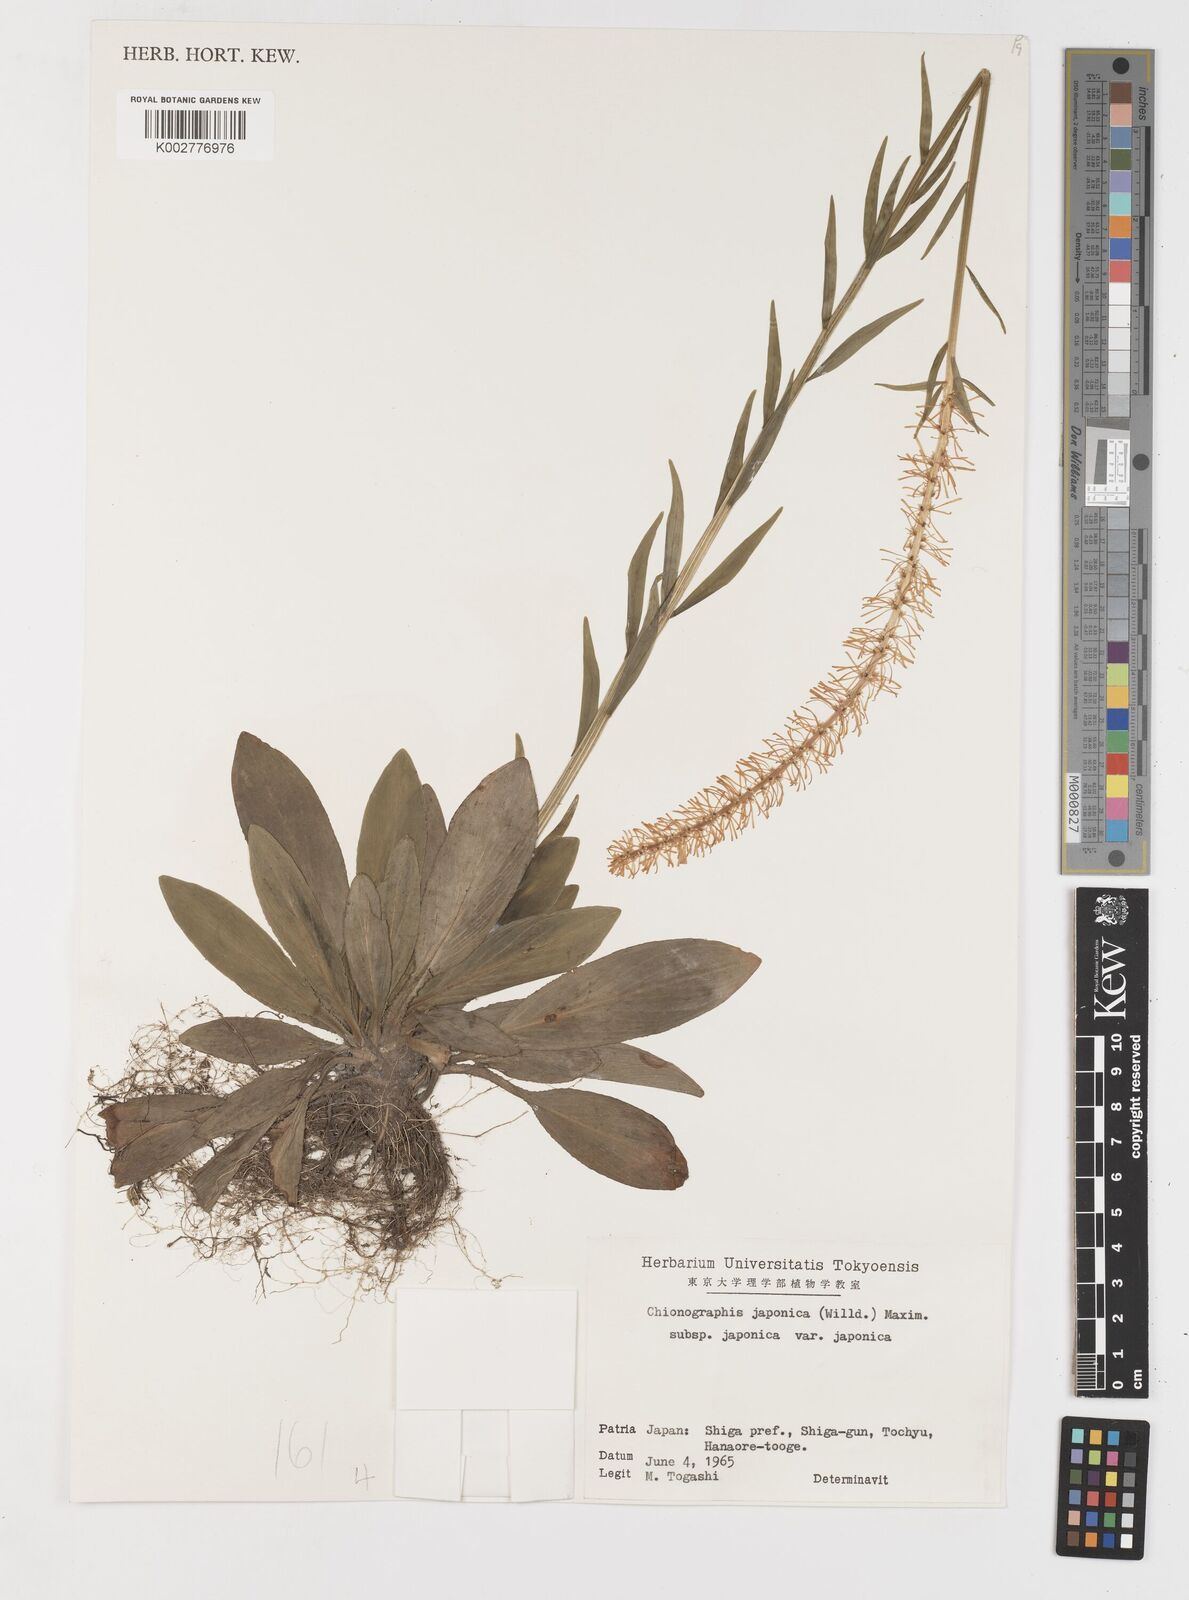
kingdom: Plantae
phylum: Tracheophyta
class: Liliopsida
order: Liliales
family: Melanthiaceae
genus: Chamaelirium
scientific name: Chamaelirium japonicum
